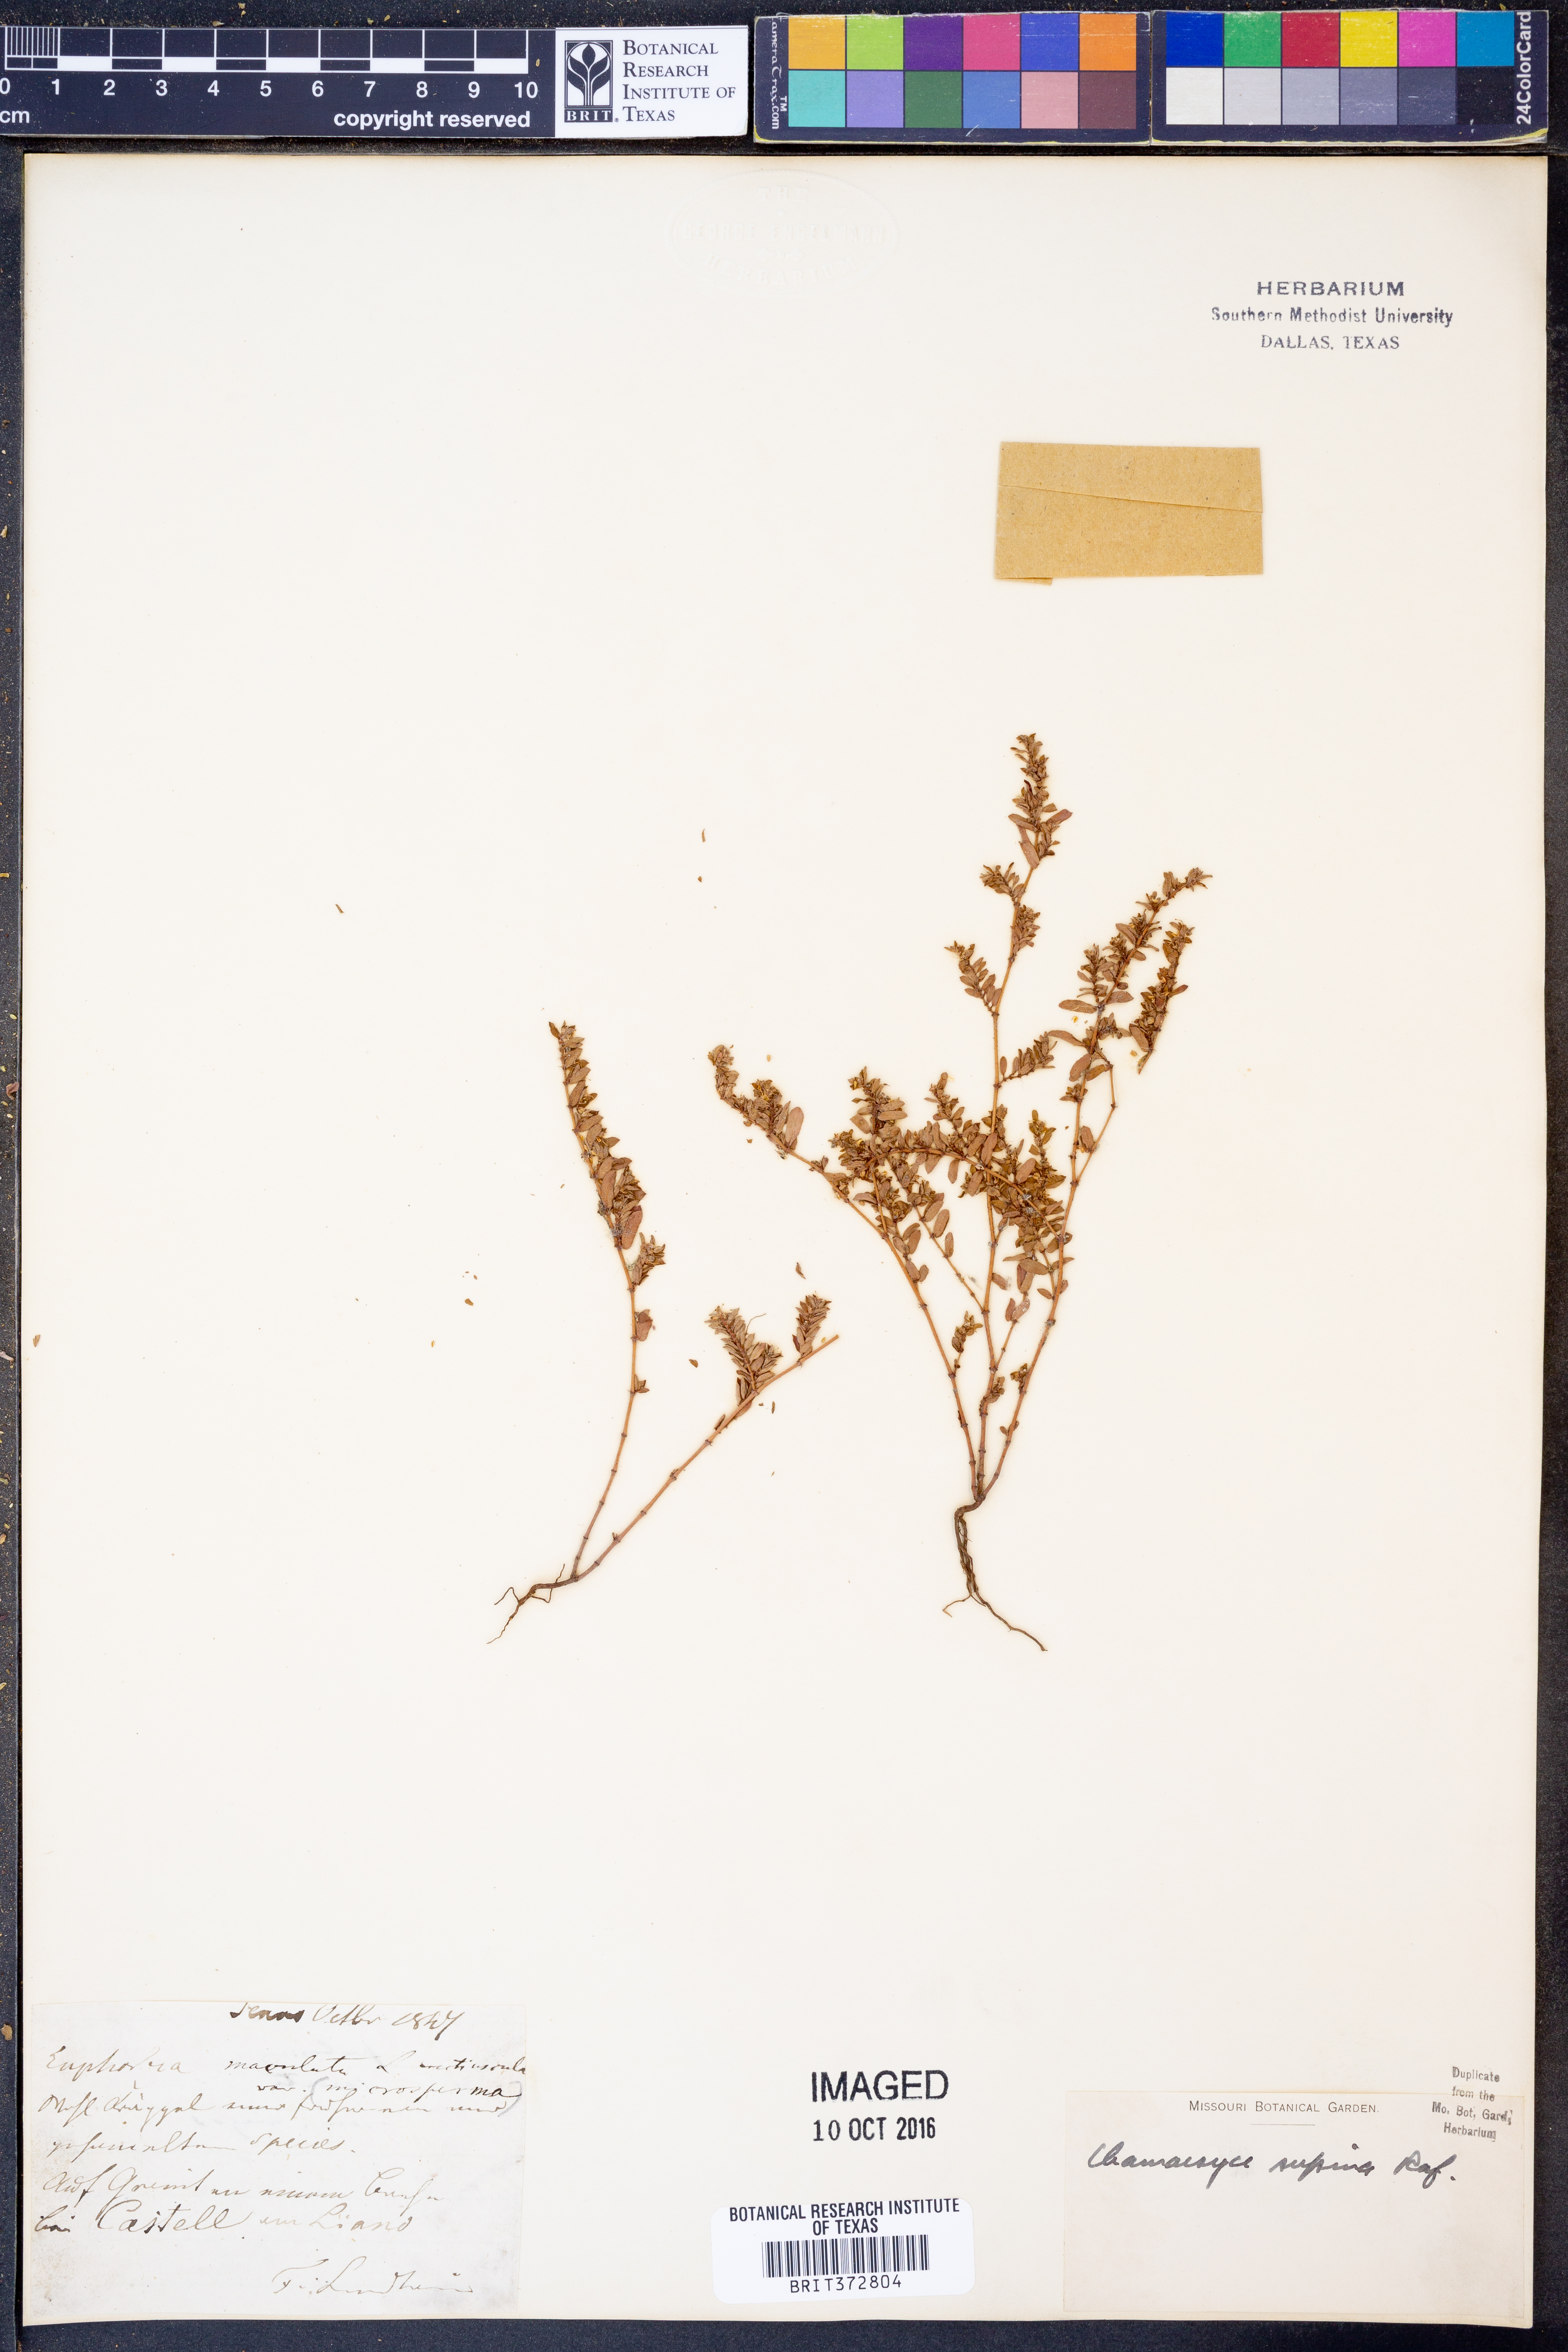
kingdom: Plantae
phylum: Tracheophyta
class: Magnoliopsida
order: Malpighiales
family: Euphorbiaceae
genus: Euphorbia
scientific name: Euphorbia maculata
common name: Spotted spurge
